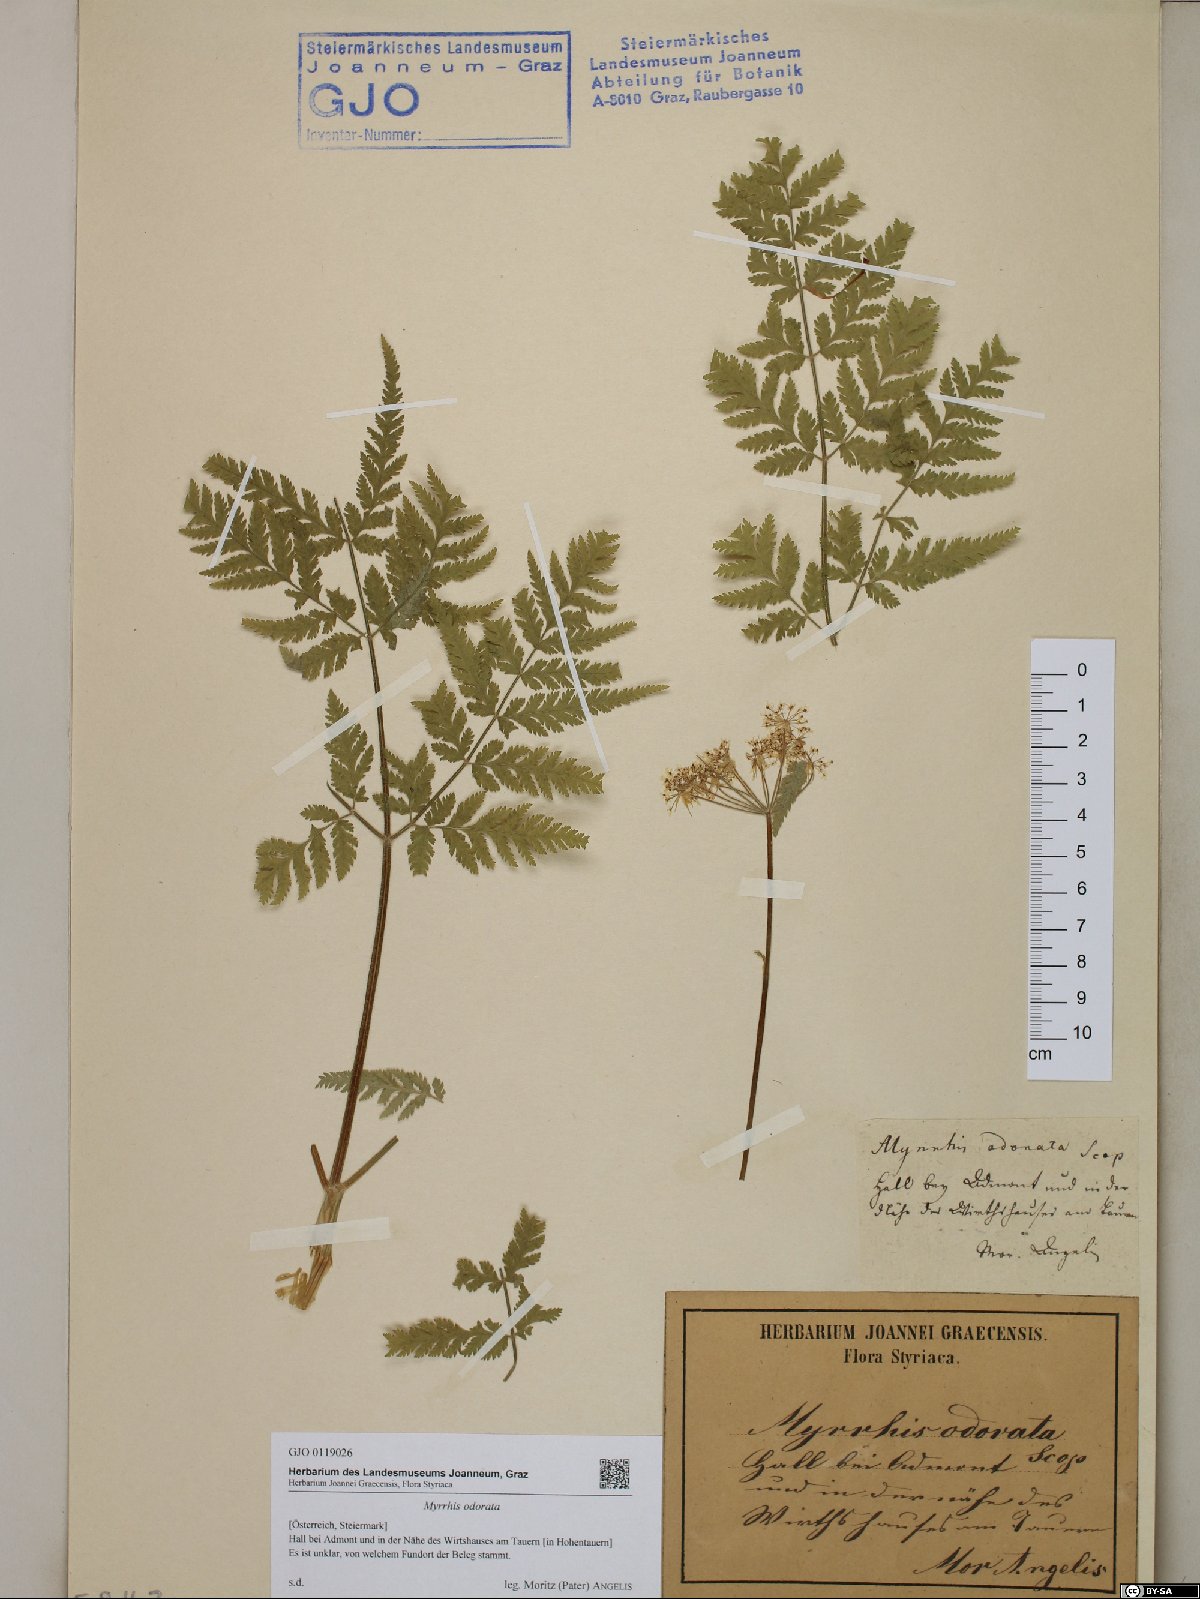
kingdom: Plantae
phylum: Tracheophyta
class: Magnoliopsida
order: Apiales
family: Apiaceae
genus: Myrrhis
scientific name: Myrrhis odorata
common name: Sweet cicely
